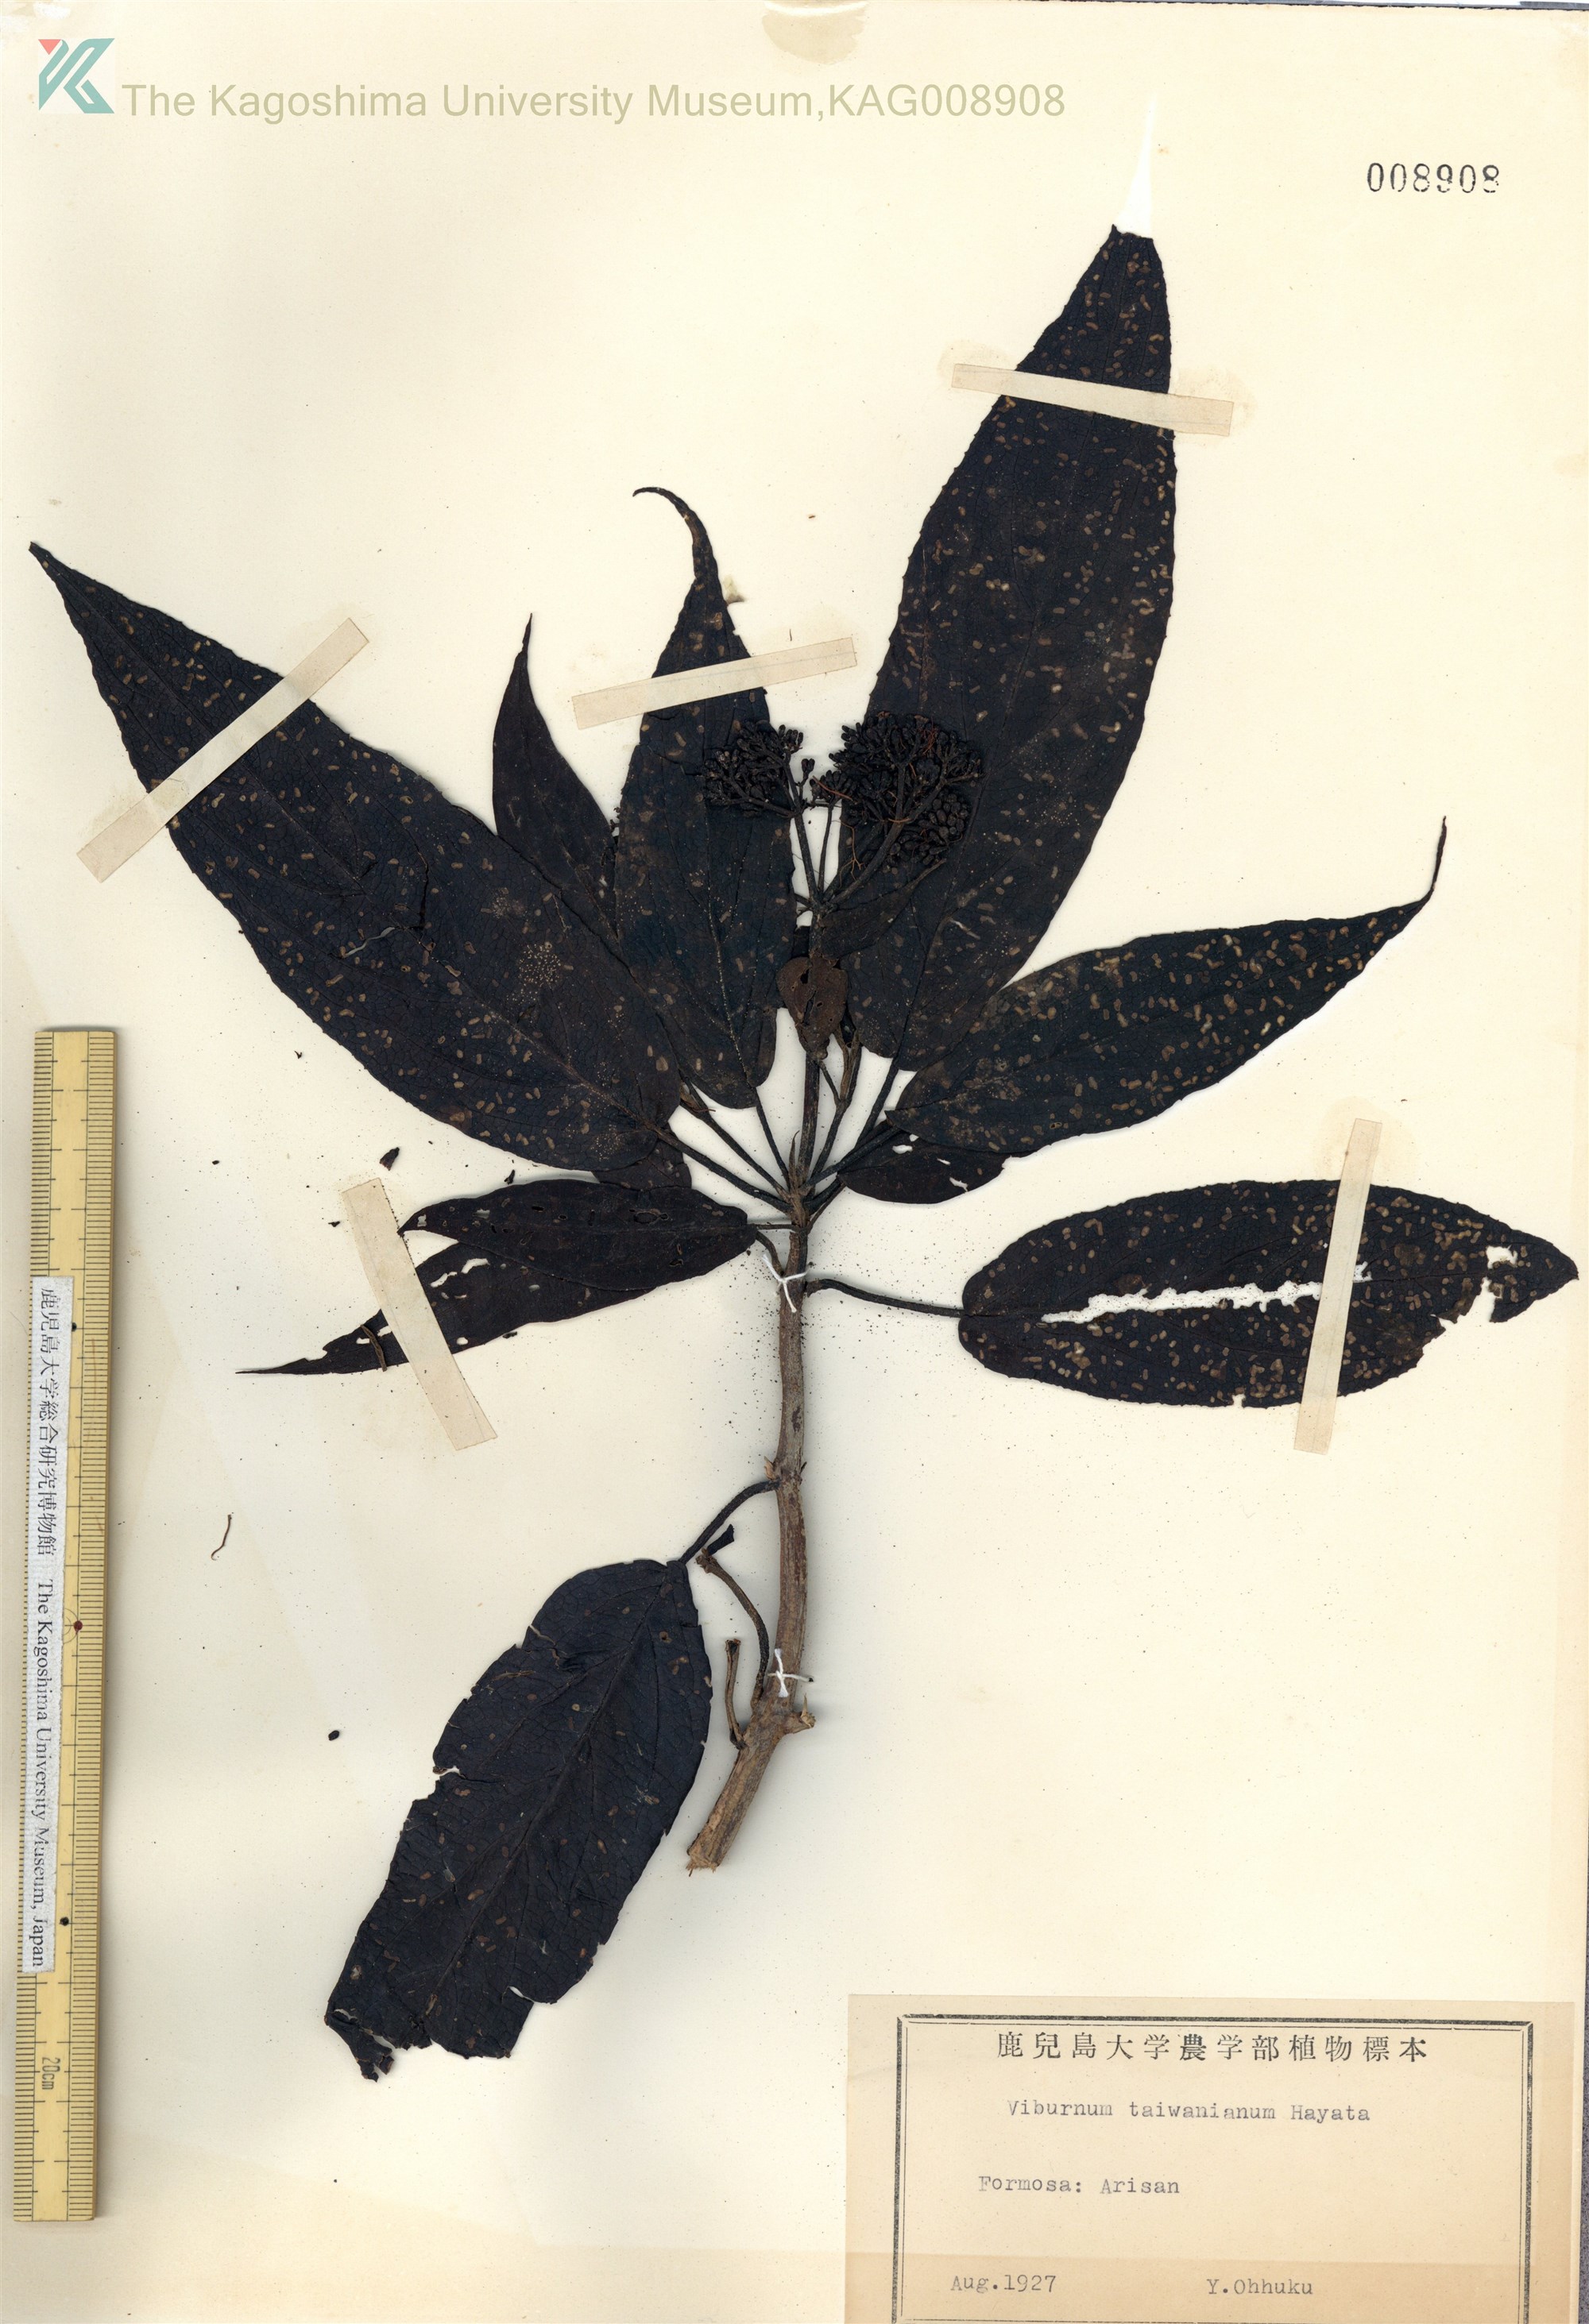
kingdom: Plantae
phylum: Tracheophyta
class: Magnoliopsida
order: Dipsacales
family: Viburnaceae
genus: Viburnum
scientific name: Viburnum taitoense
